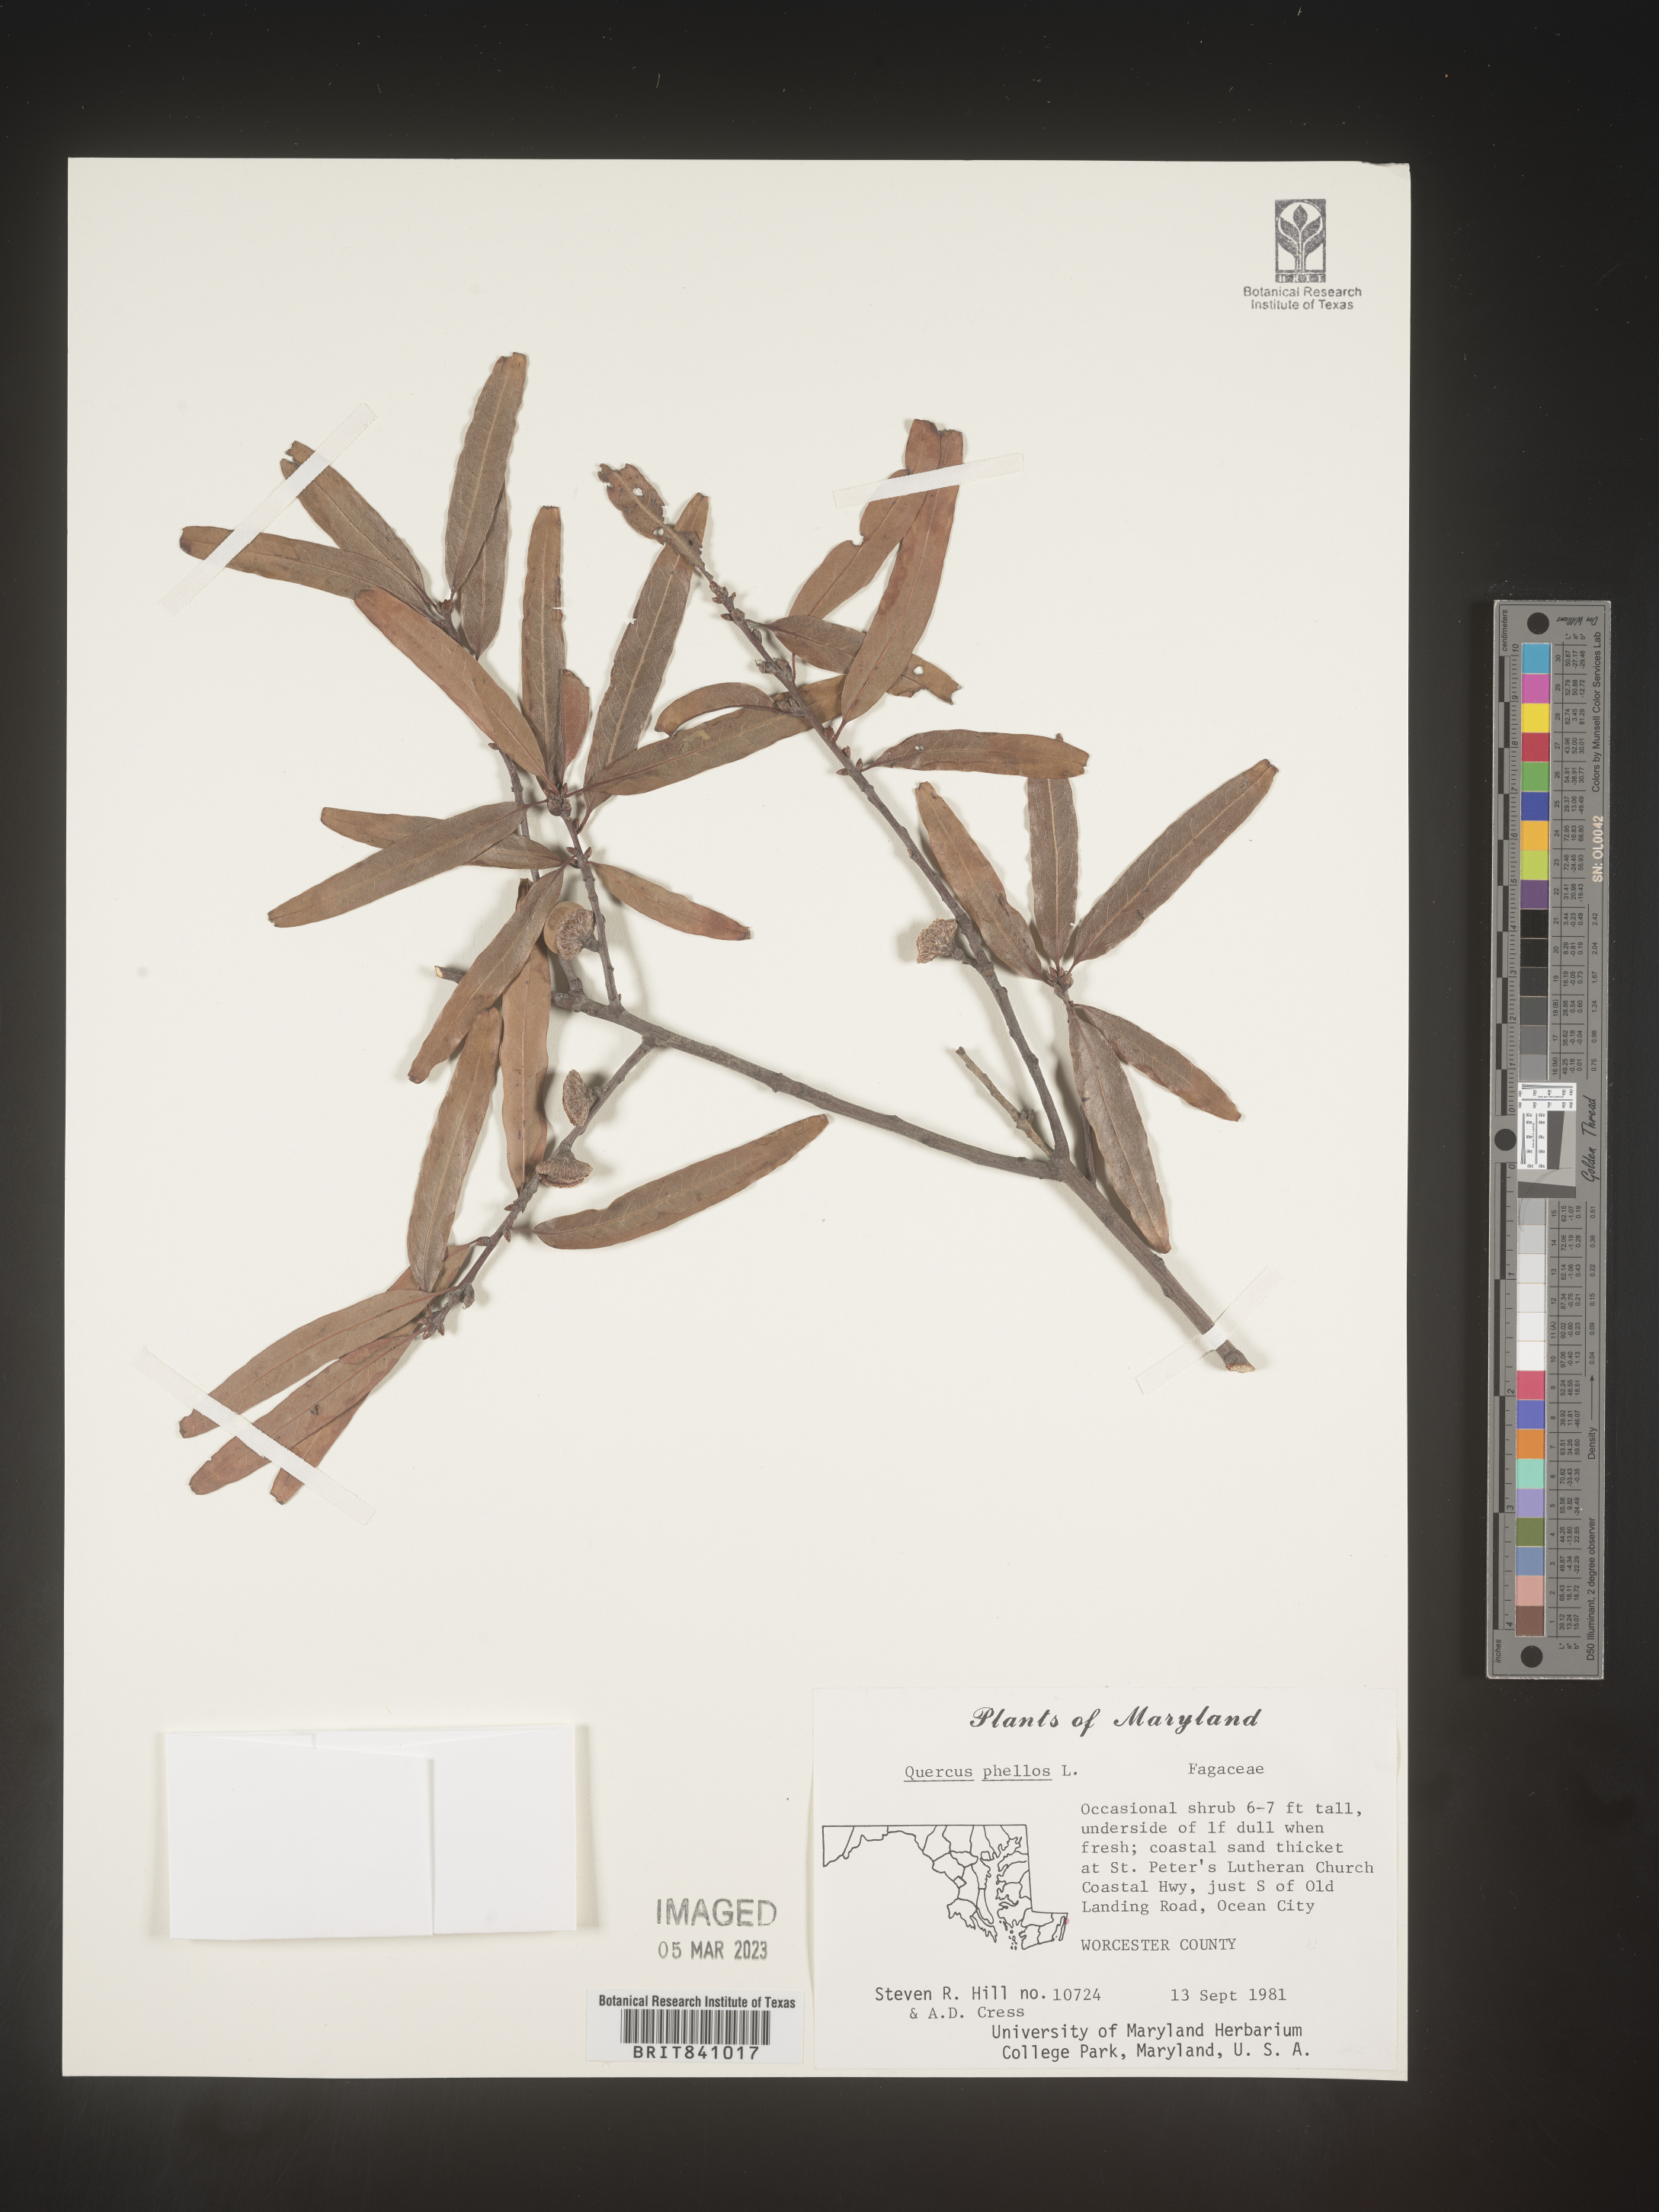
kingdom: Plantae
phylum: Tracheophyta
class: Magnoliopsida
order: Fagales
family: Fagaceae
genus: Quercus
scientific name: Quercus phellos
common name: Willow oak
